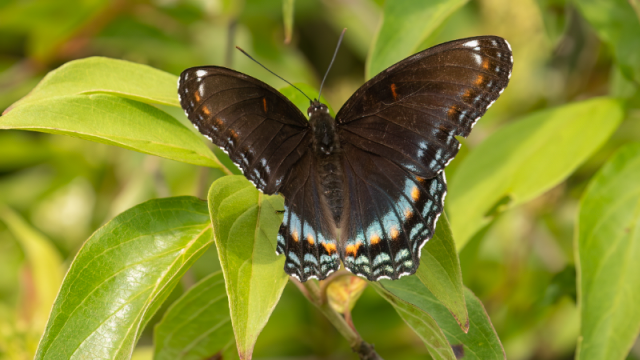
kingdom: Animalia
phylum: Arthropoda
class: Insecta
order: Lepidoptera
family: Nymphalidae
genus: Limenitis
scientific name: Limenitis arthemis
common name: Red-spotted Admiral
